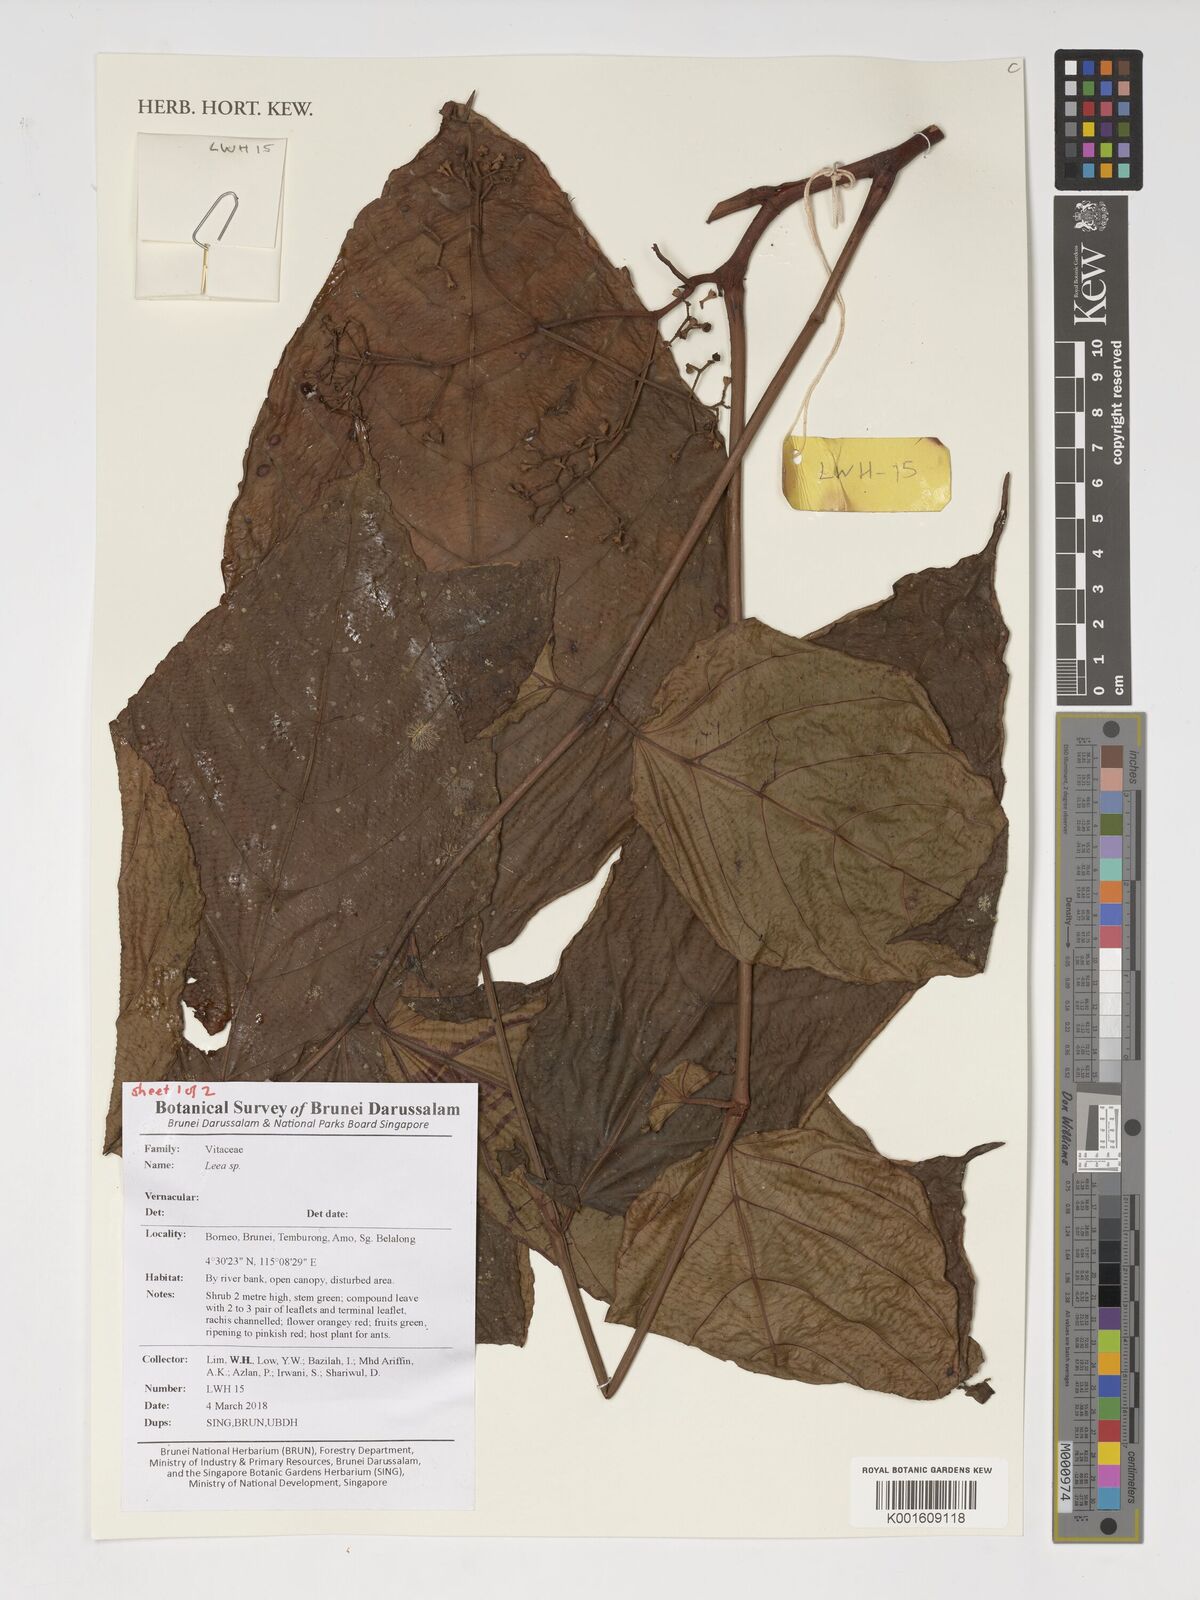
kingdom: Plantae
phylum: Tracheophyta
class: Magnoliopsida
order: Vitales
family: Vitaceae
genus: Leea
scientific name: Leea
